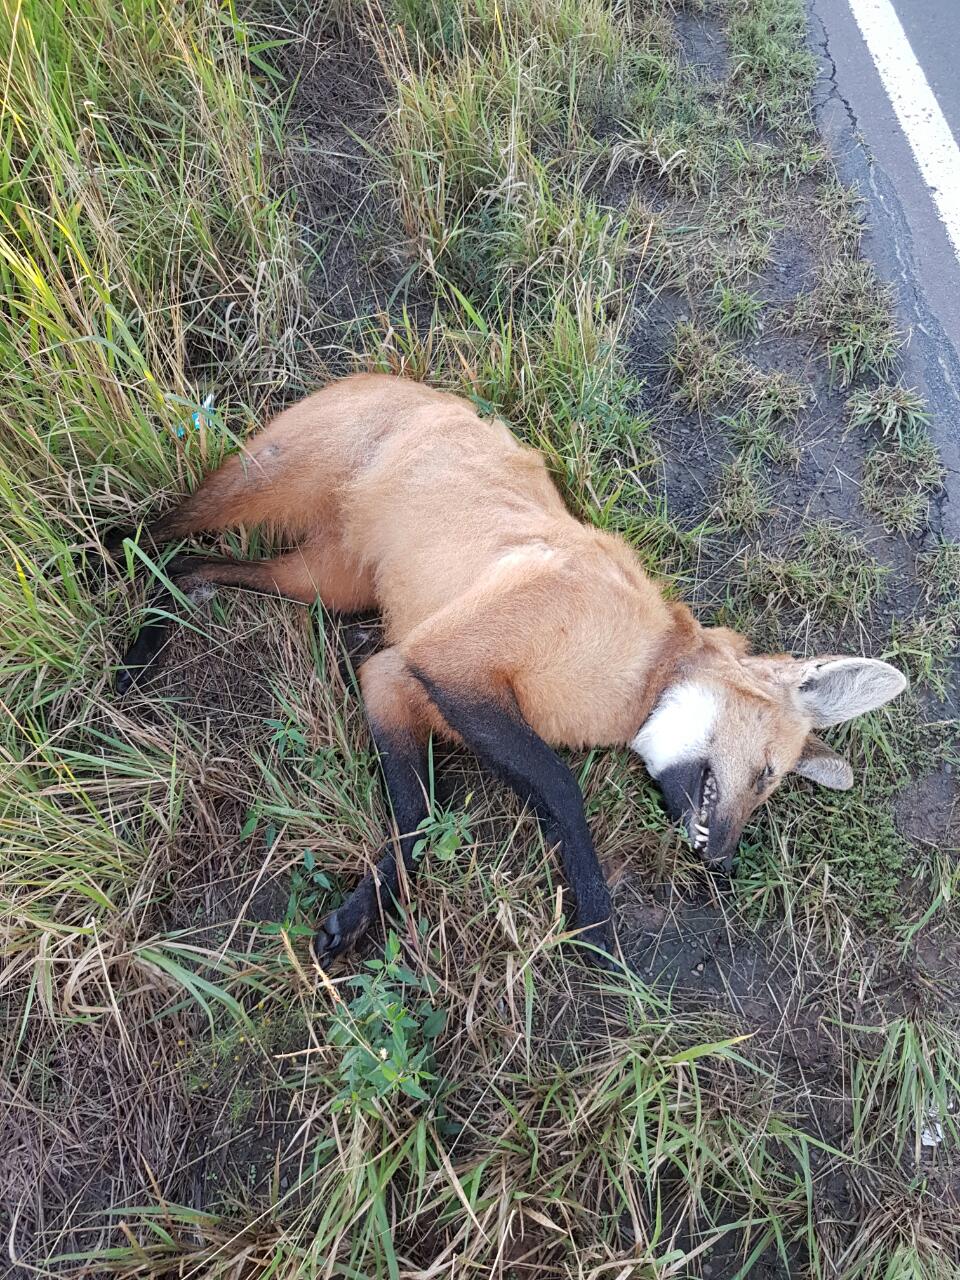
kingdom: Animalia
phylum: Chordata
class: Mammalia
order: Carnivora
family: Canidae
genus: Chrysocyon
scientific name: Chrysocyon brachyurus
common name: Maned wolf
